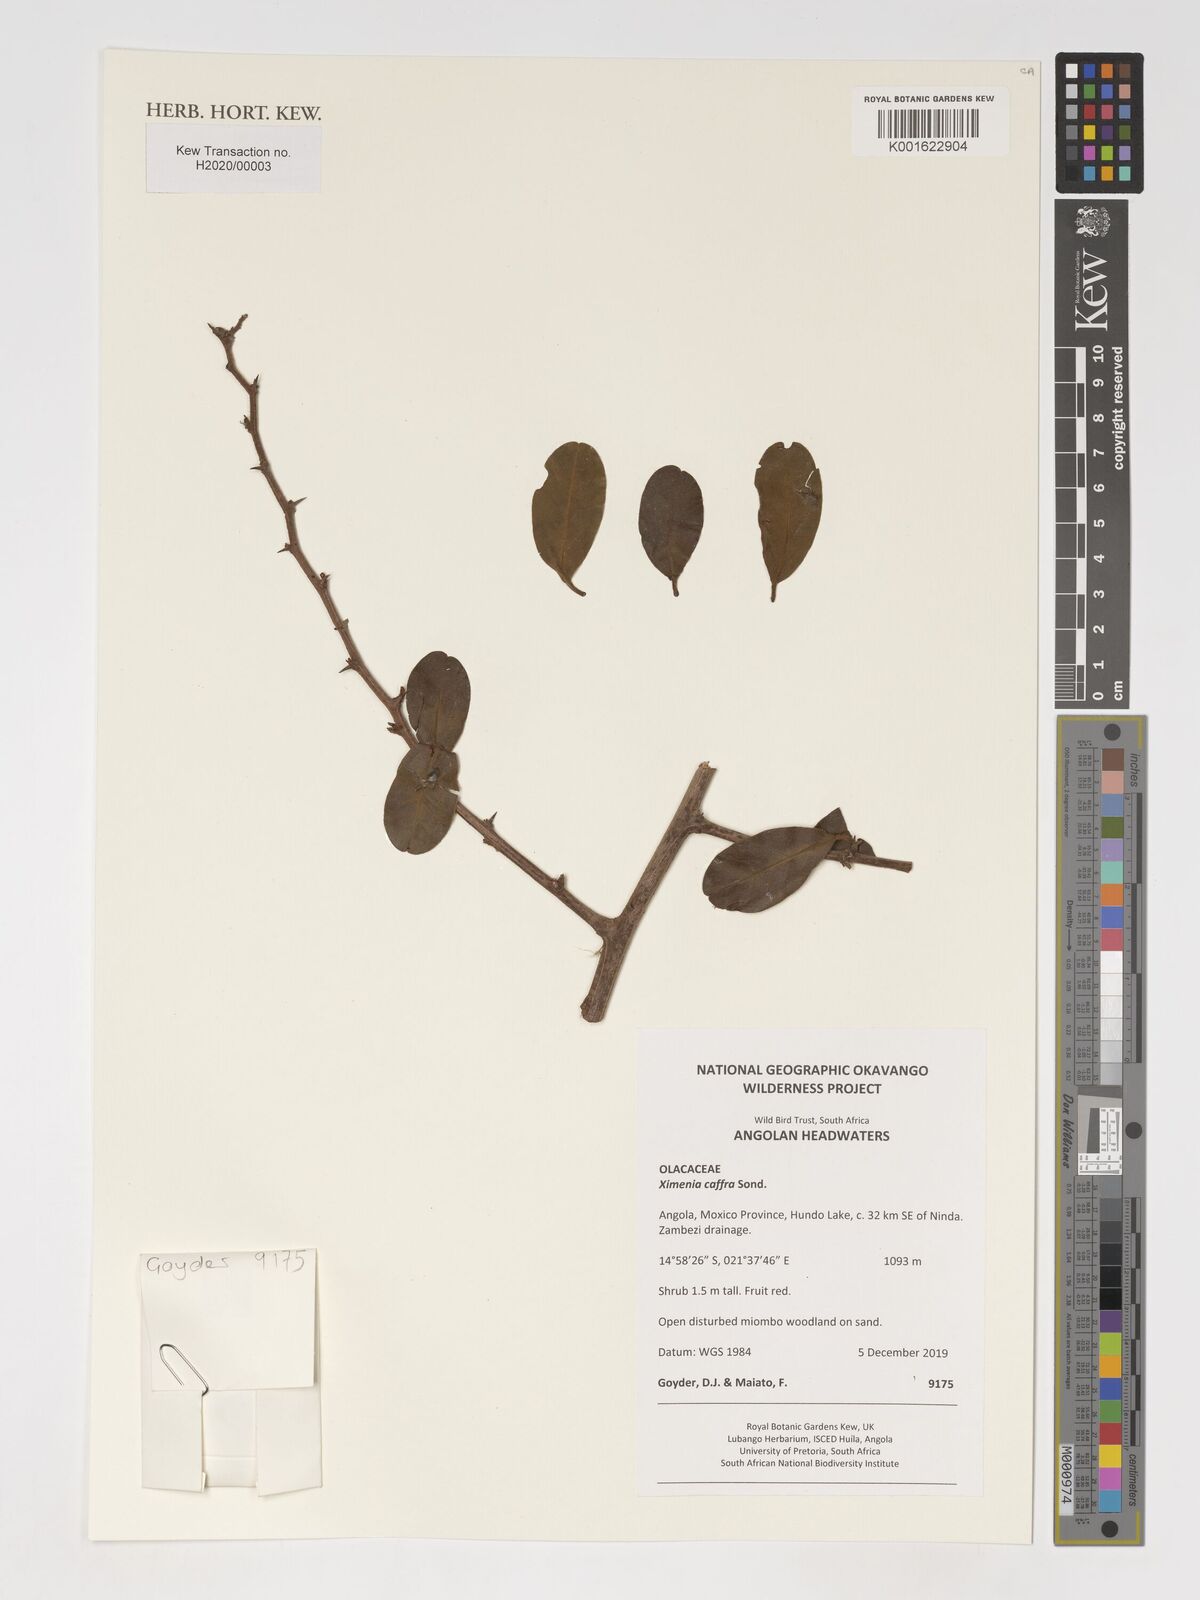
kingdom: Plantae
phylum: Tracheophyta
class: Magnoliopsida
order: Santalales
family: Ximeniaceae
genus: Ximenia
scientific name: Ximenia caffra
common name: Large sourplum
